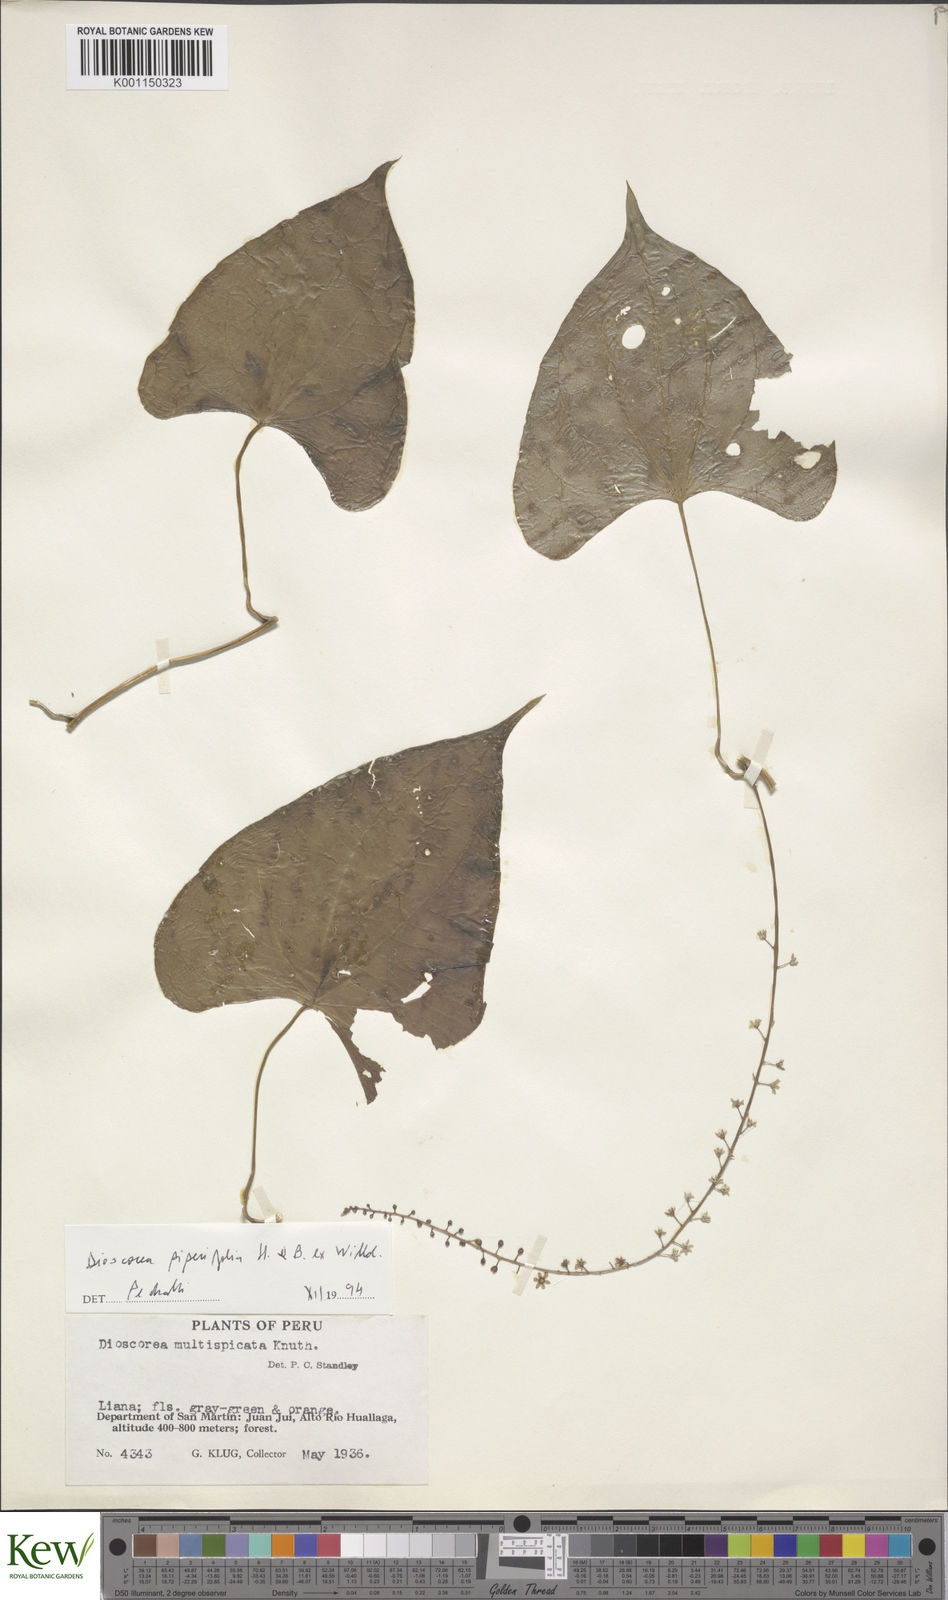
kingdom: Plantae
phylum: Tracheophyta
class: Liliopsida
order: Dioscoreales
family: Dioscoreaceae
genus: Dioscorea
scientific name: Dioscorea piperifolia
